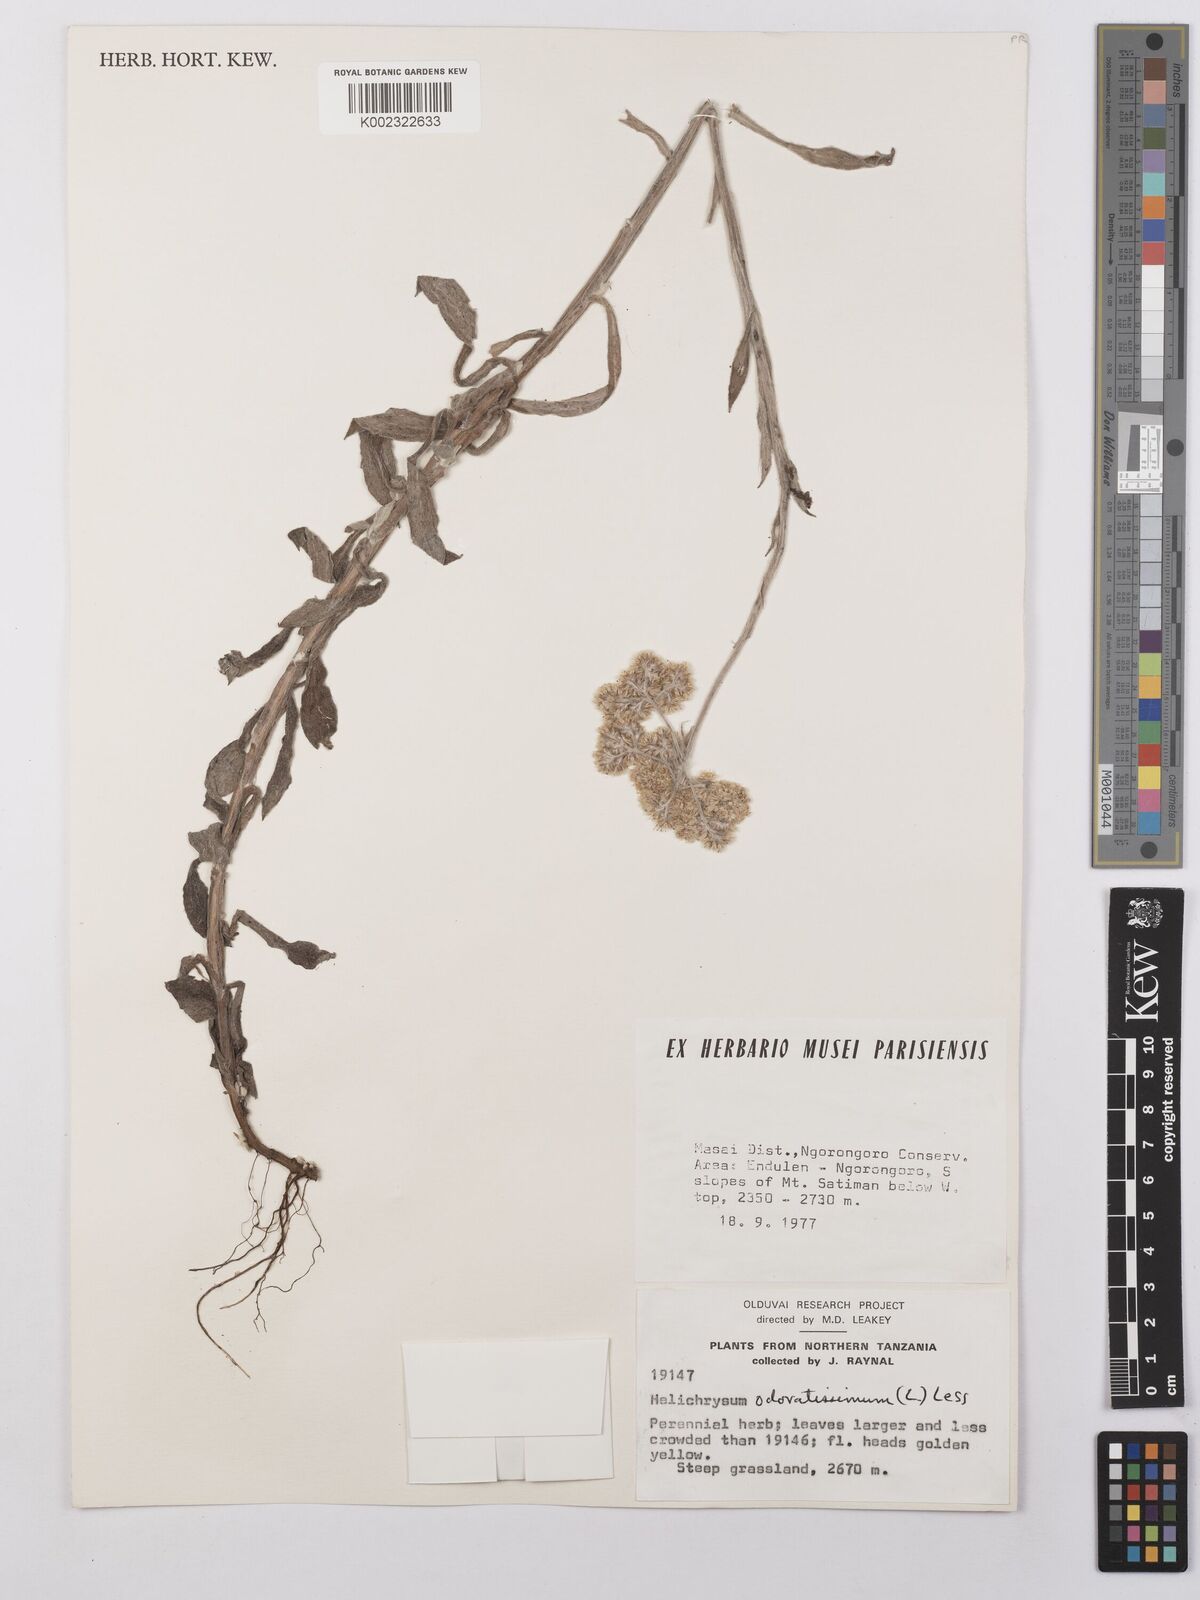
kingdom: Plantae
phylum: Tracheophyta
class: Magnoliopsida
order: Asterales
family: Asteraceae
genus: Helichrysum
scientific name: Helichrysum stenopterum
